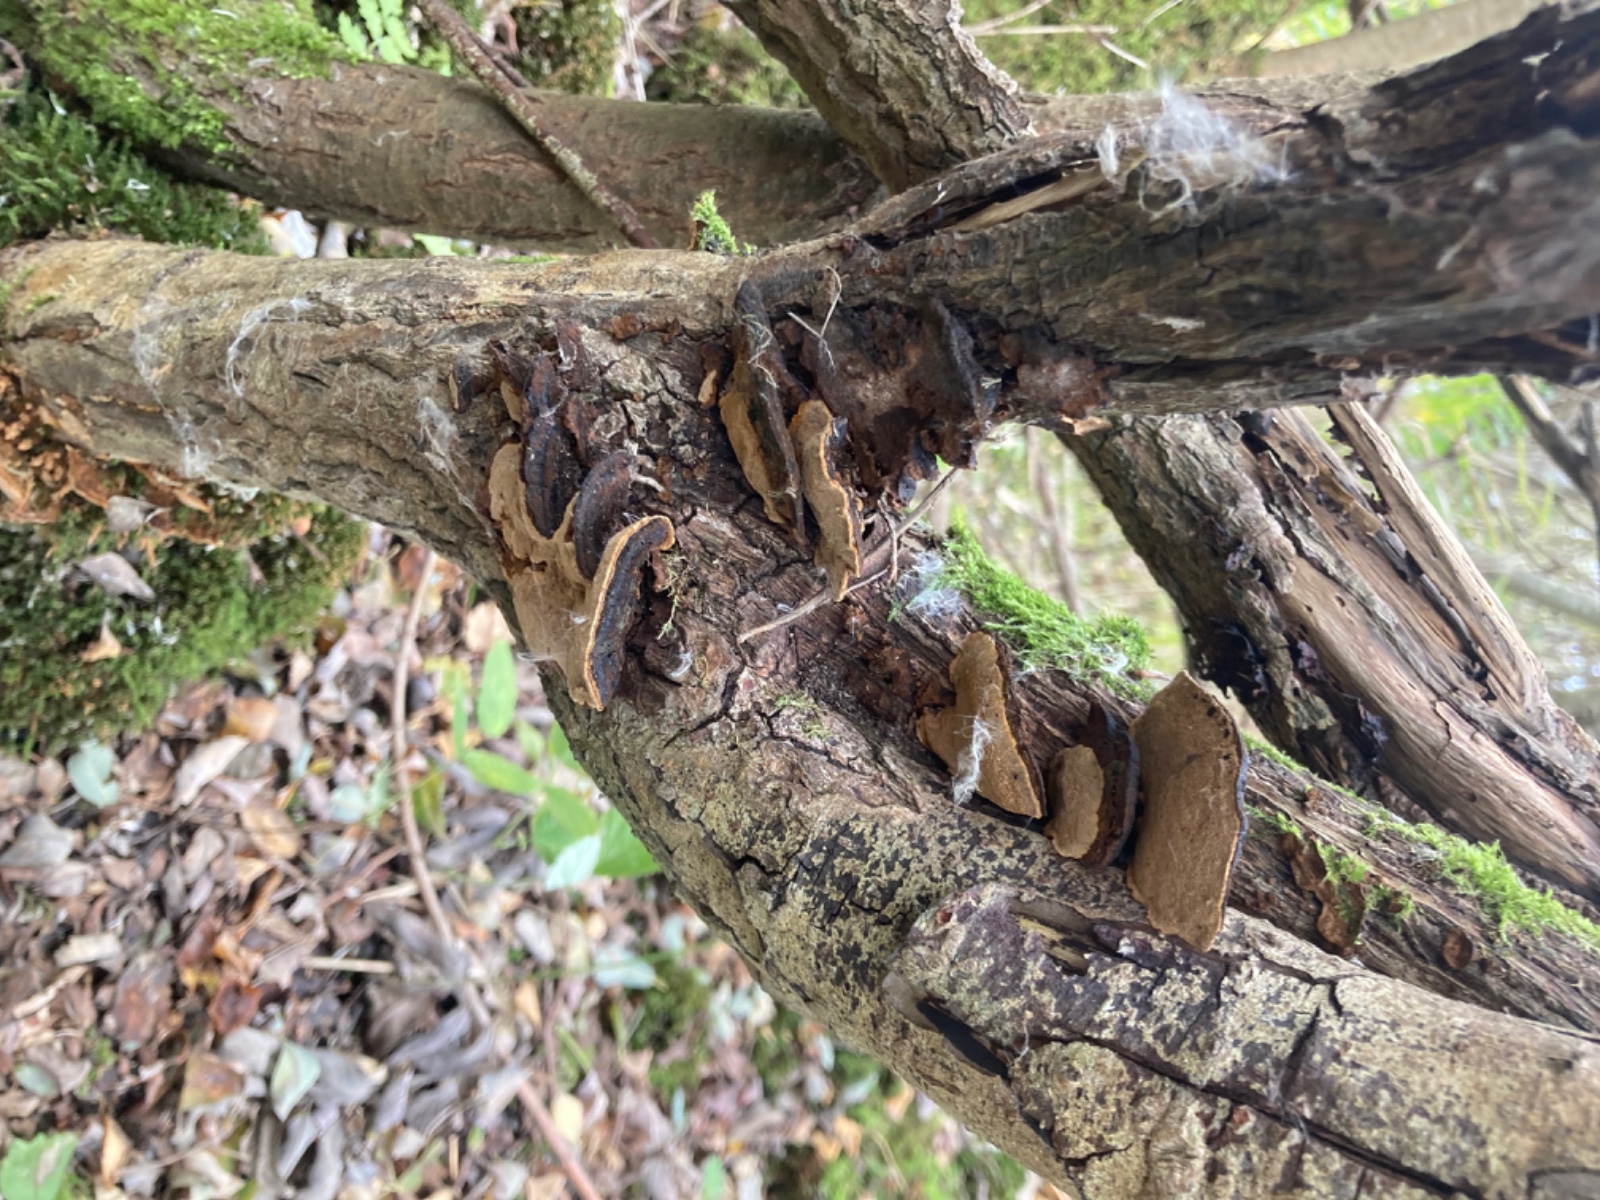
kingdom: Fungi
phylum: Basidiomycota
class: Agaricomycetes
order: Hymenochaetales
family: Hymenochaetaceae
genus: Phellinopsis
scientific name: Phellinopsis conchata
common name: pile-ildporesvamp
